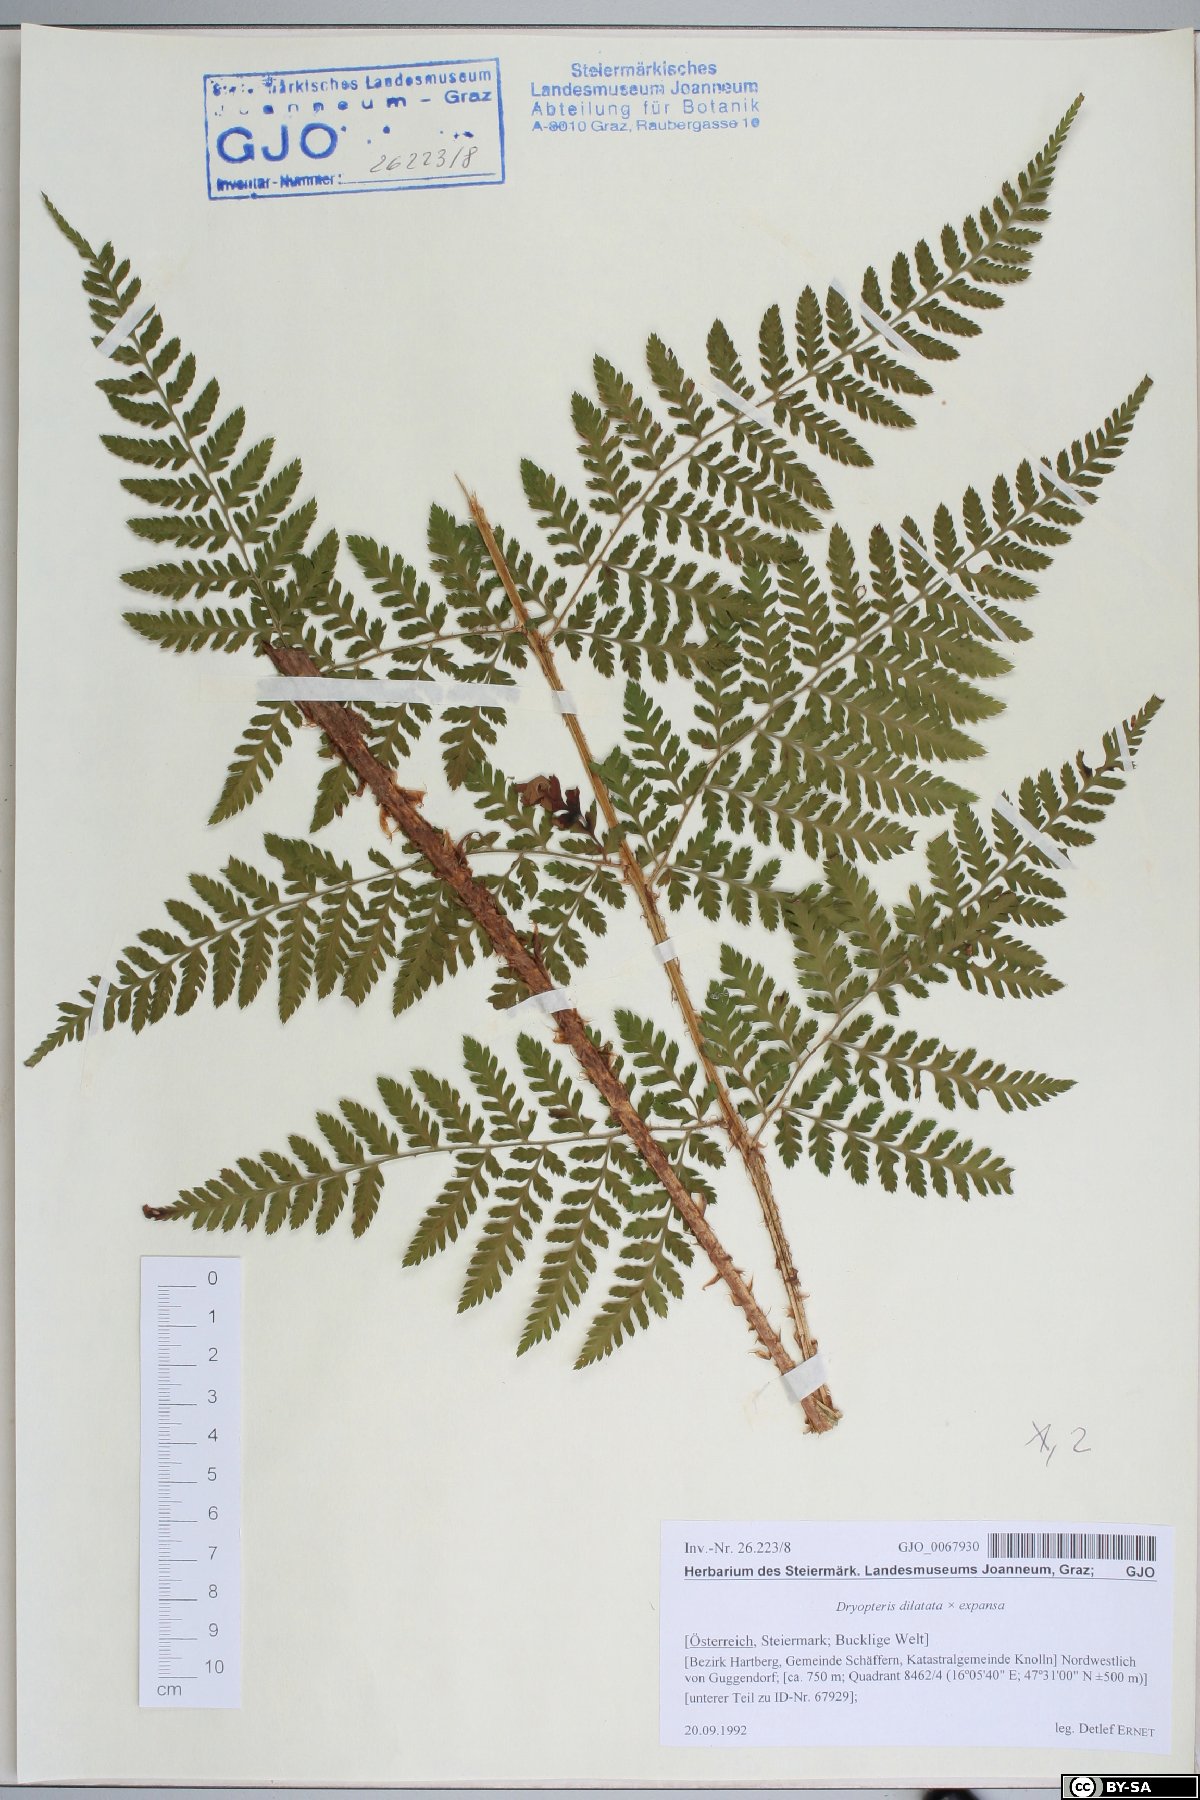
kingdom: Plantae
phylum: Tracheophyta
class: Polypodiopsida
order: Polypodiales
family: Dryopteridaceae
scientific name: Dryopteridaceae
